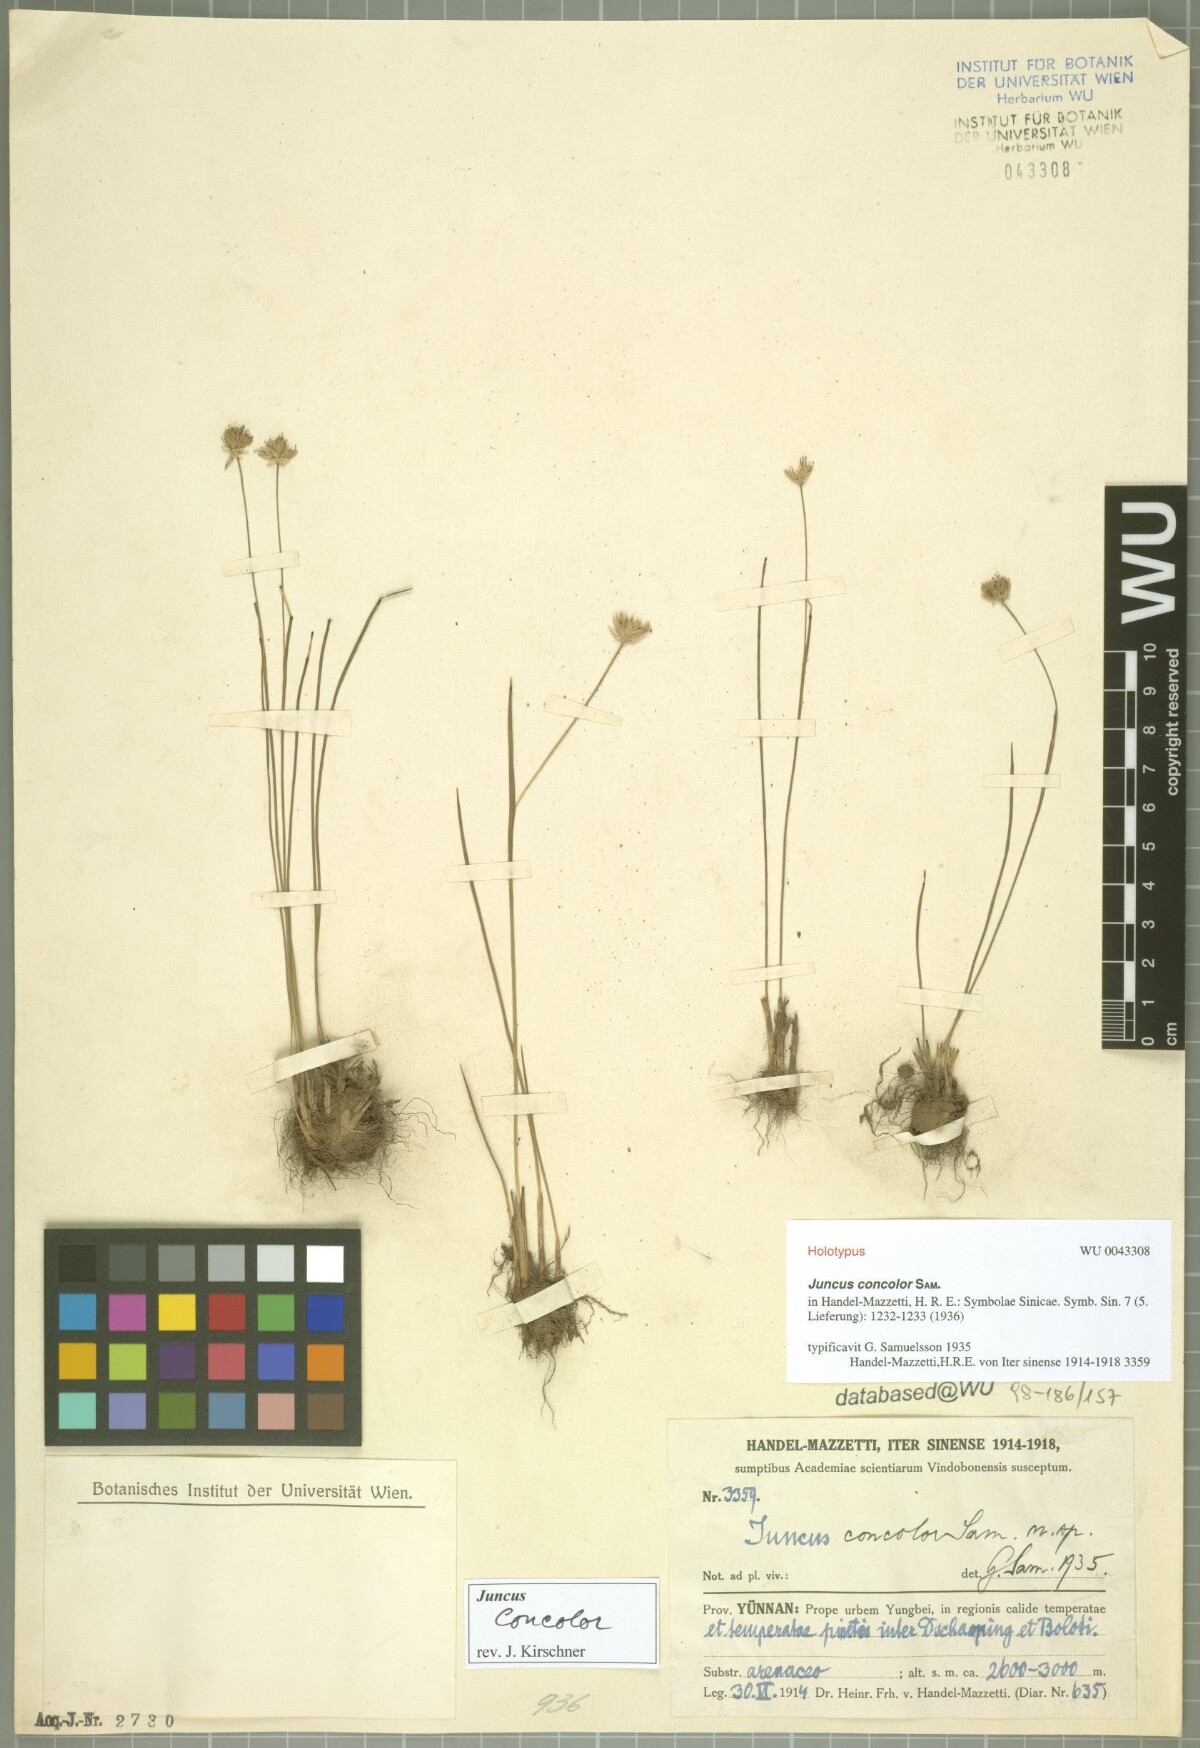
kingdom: Plantae
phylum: Tracheophyta
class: Liliopsida
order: Poales
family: Juncaceae
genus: Juncus
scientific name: Juncus concolor
